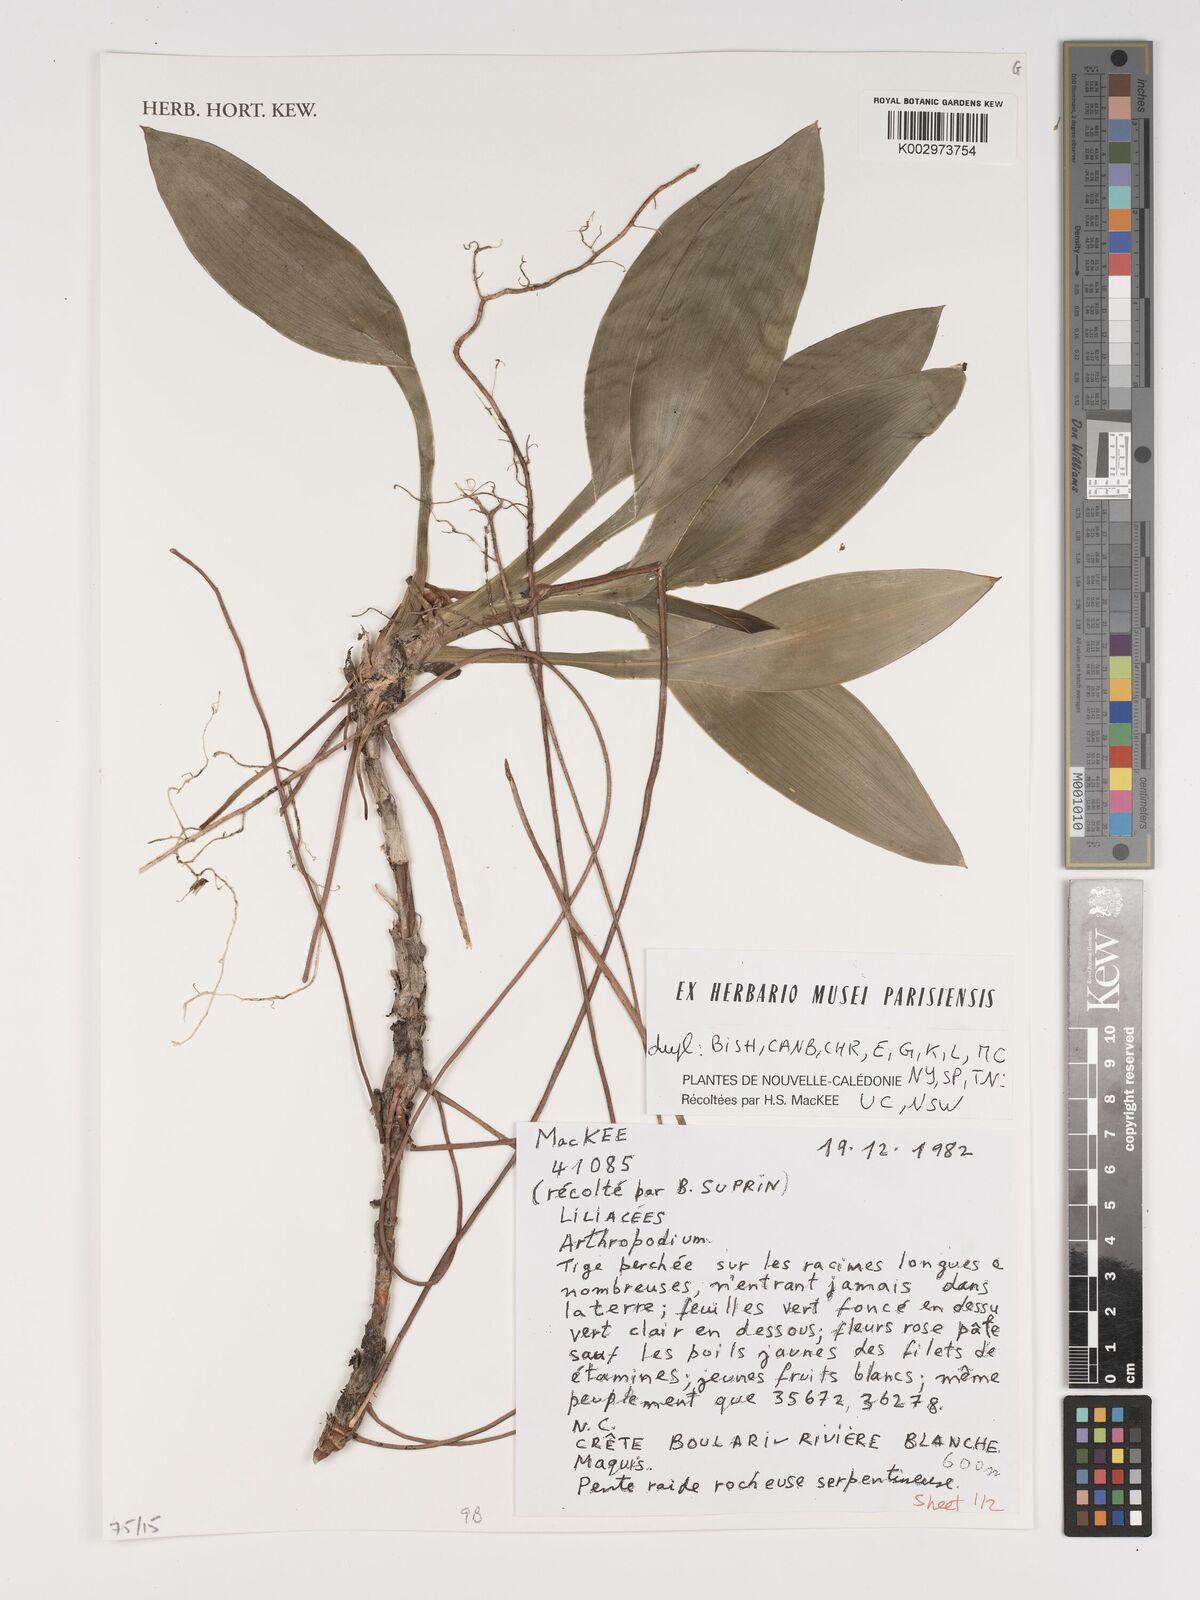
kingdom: Plantae
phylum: Tracheophyta
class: Liliopsida
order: Asparagales
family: Asparagaceae
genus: Arthropodium
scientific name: Arthropodium
